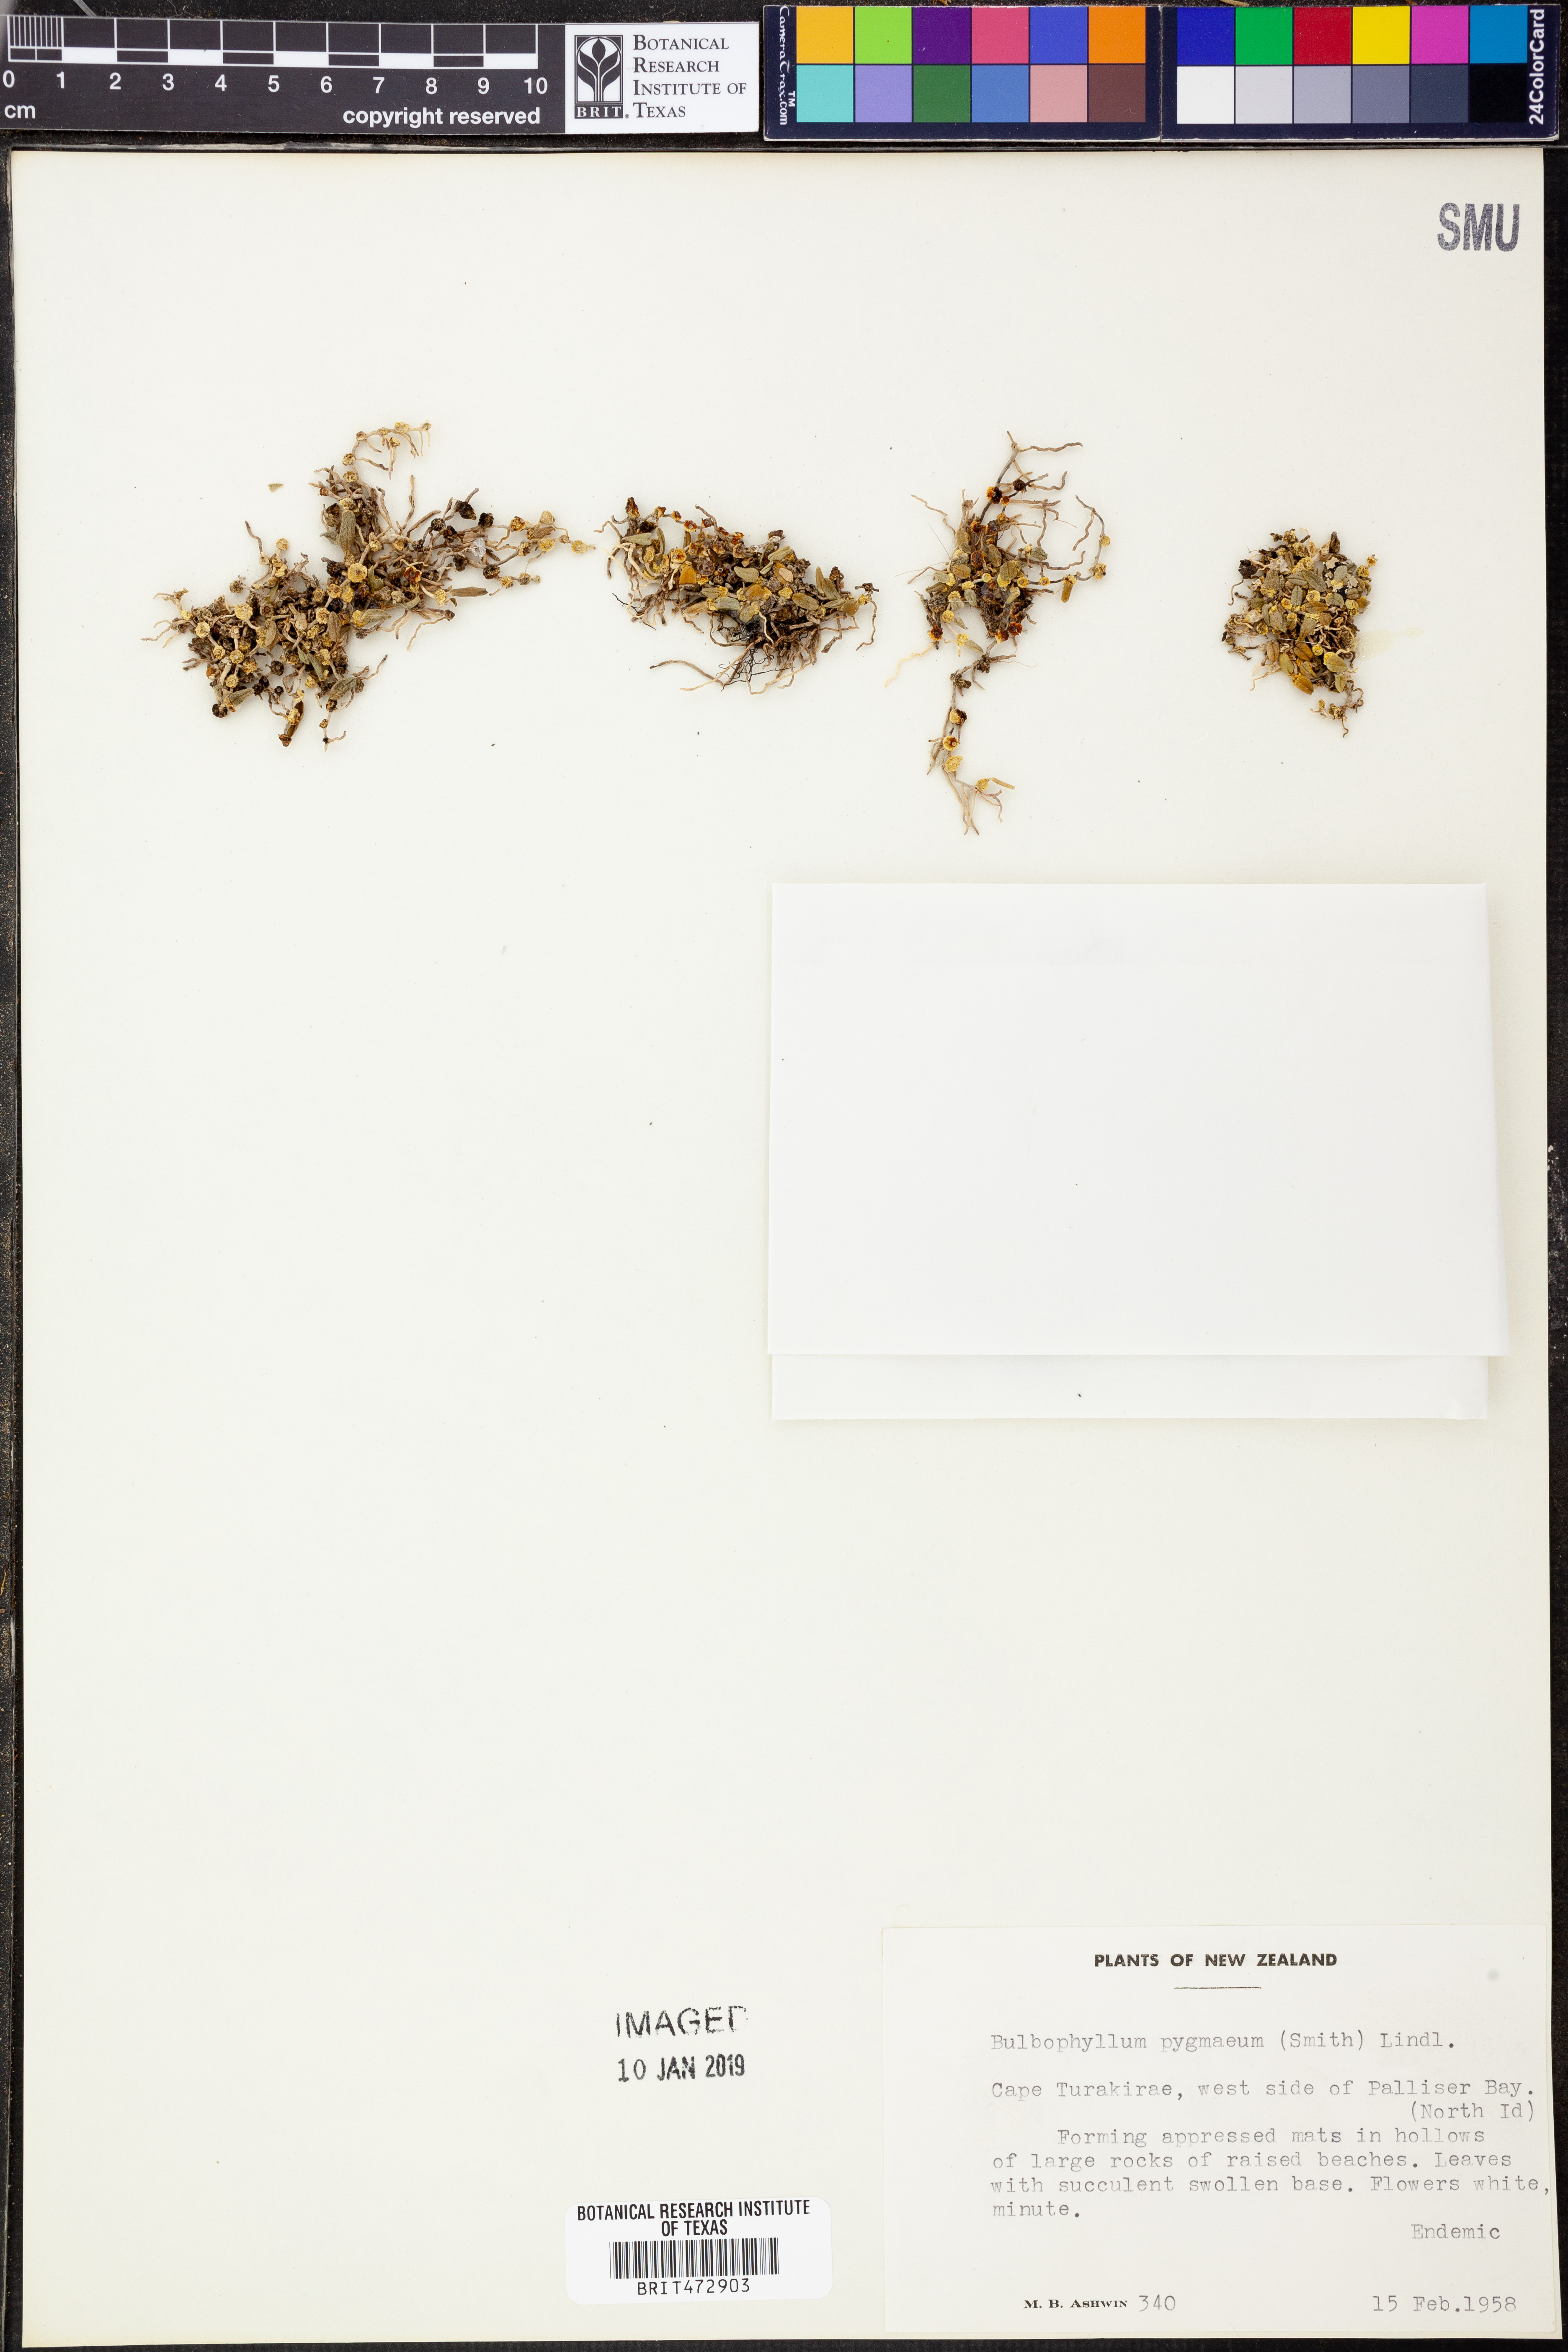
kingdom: Plantae
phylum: Tracheophyta
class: Liliopsida
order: Asparagales
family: Orchidaceae
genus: Bulbophyllum
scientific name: Bulbophyllum pygmaeum
